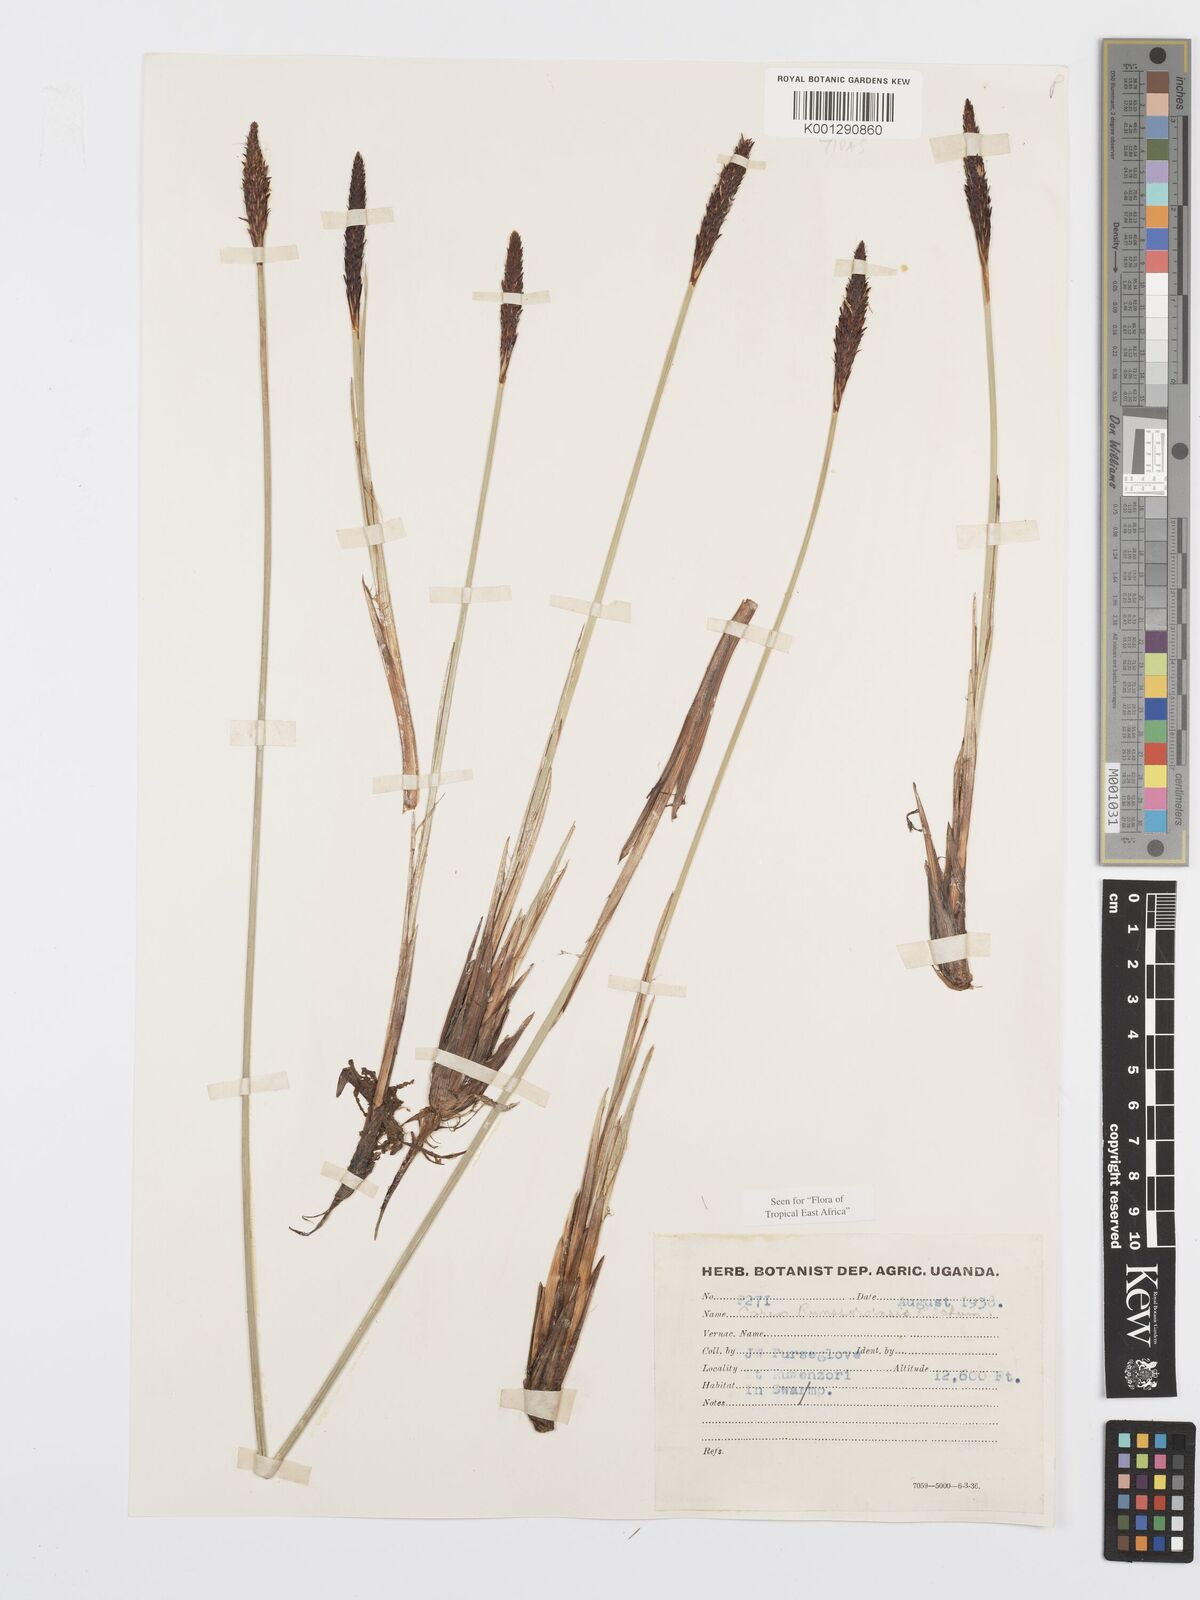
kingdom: Plantae
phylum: Tracheophyta
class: Liliopsida
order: Poales
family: Cyperaceae
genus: Carex
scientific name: Carex runssoroensis
